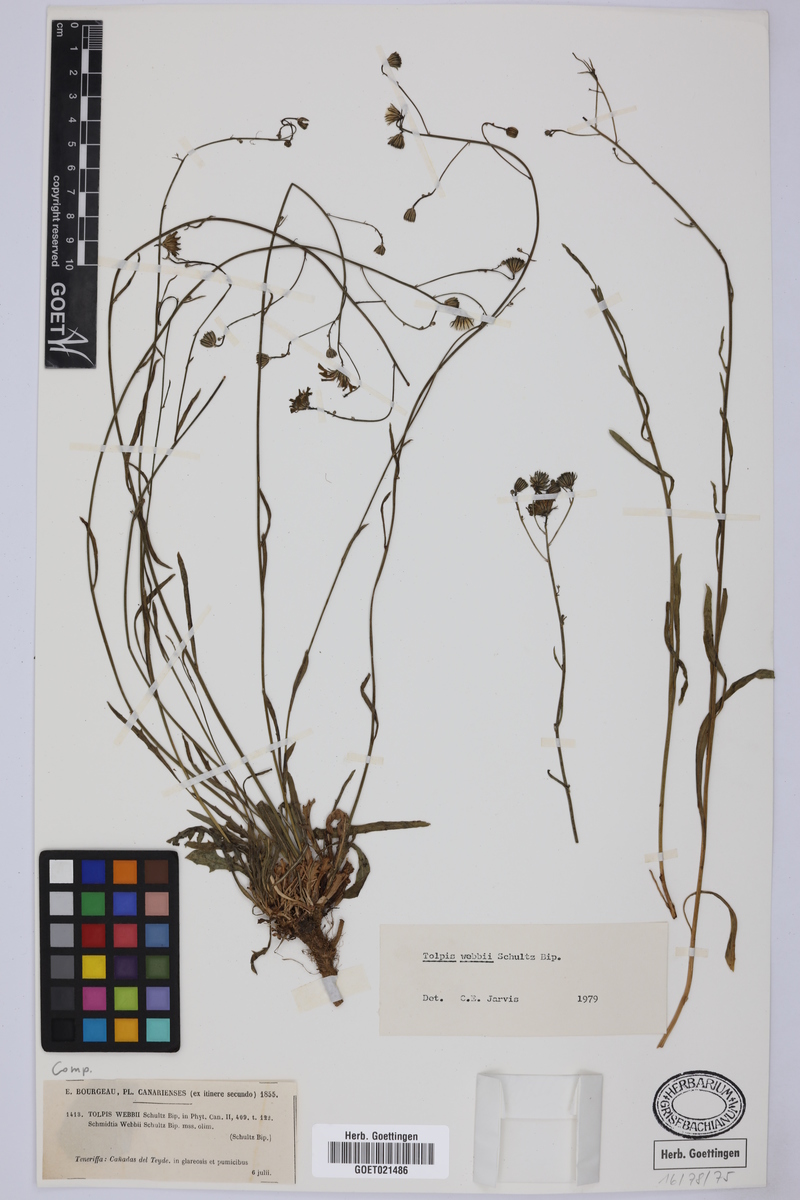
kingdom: Plantae
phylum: Tracheophyta
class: Magnoliopsida
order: Asterales
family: Asteraceae
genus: Tolpis
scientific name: Tolpis webbii
